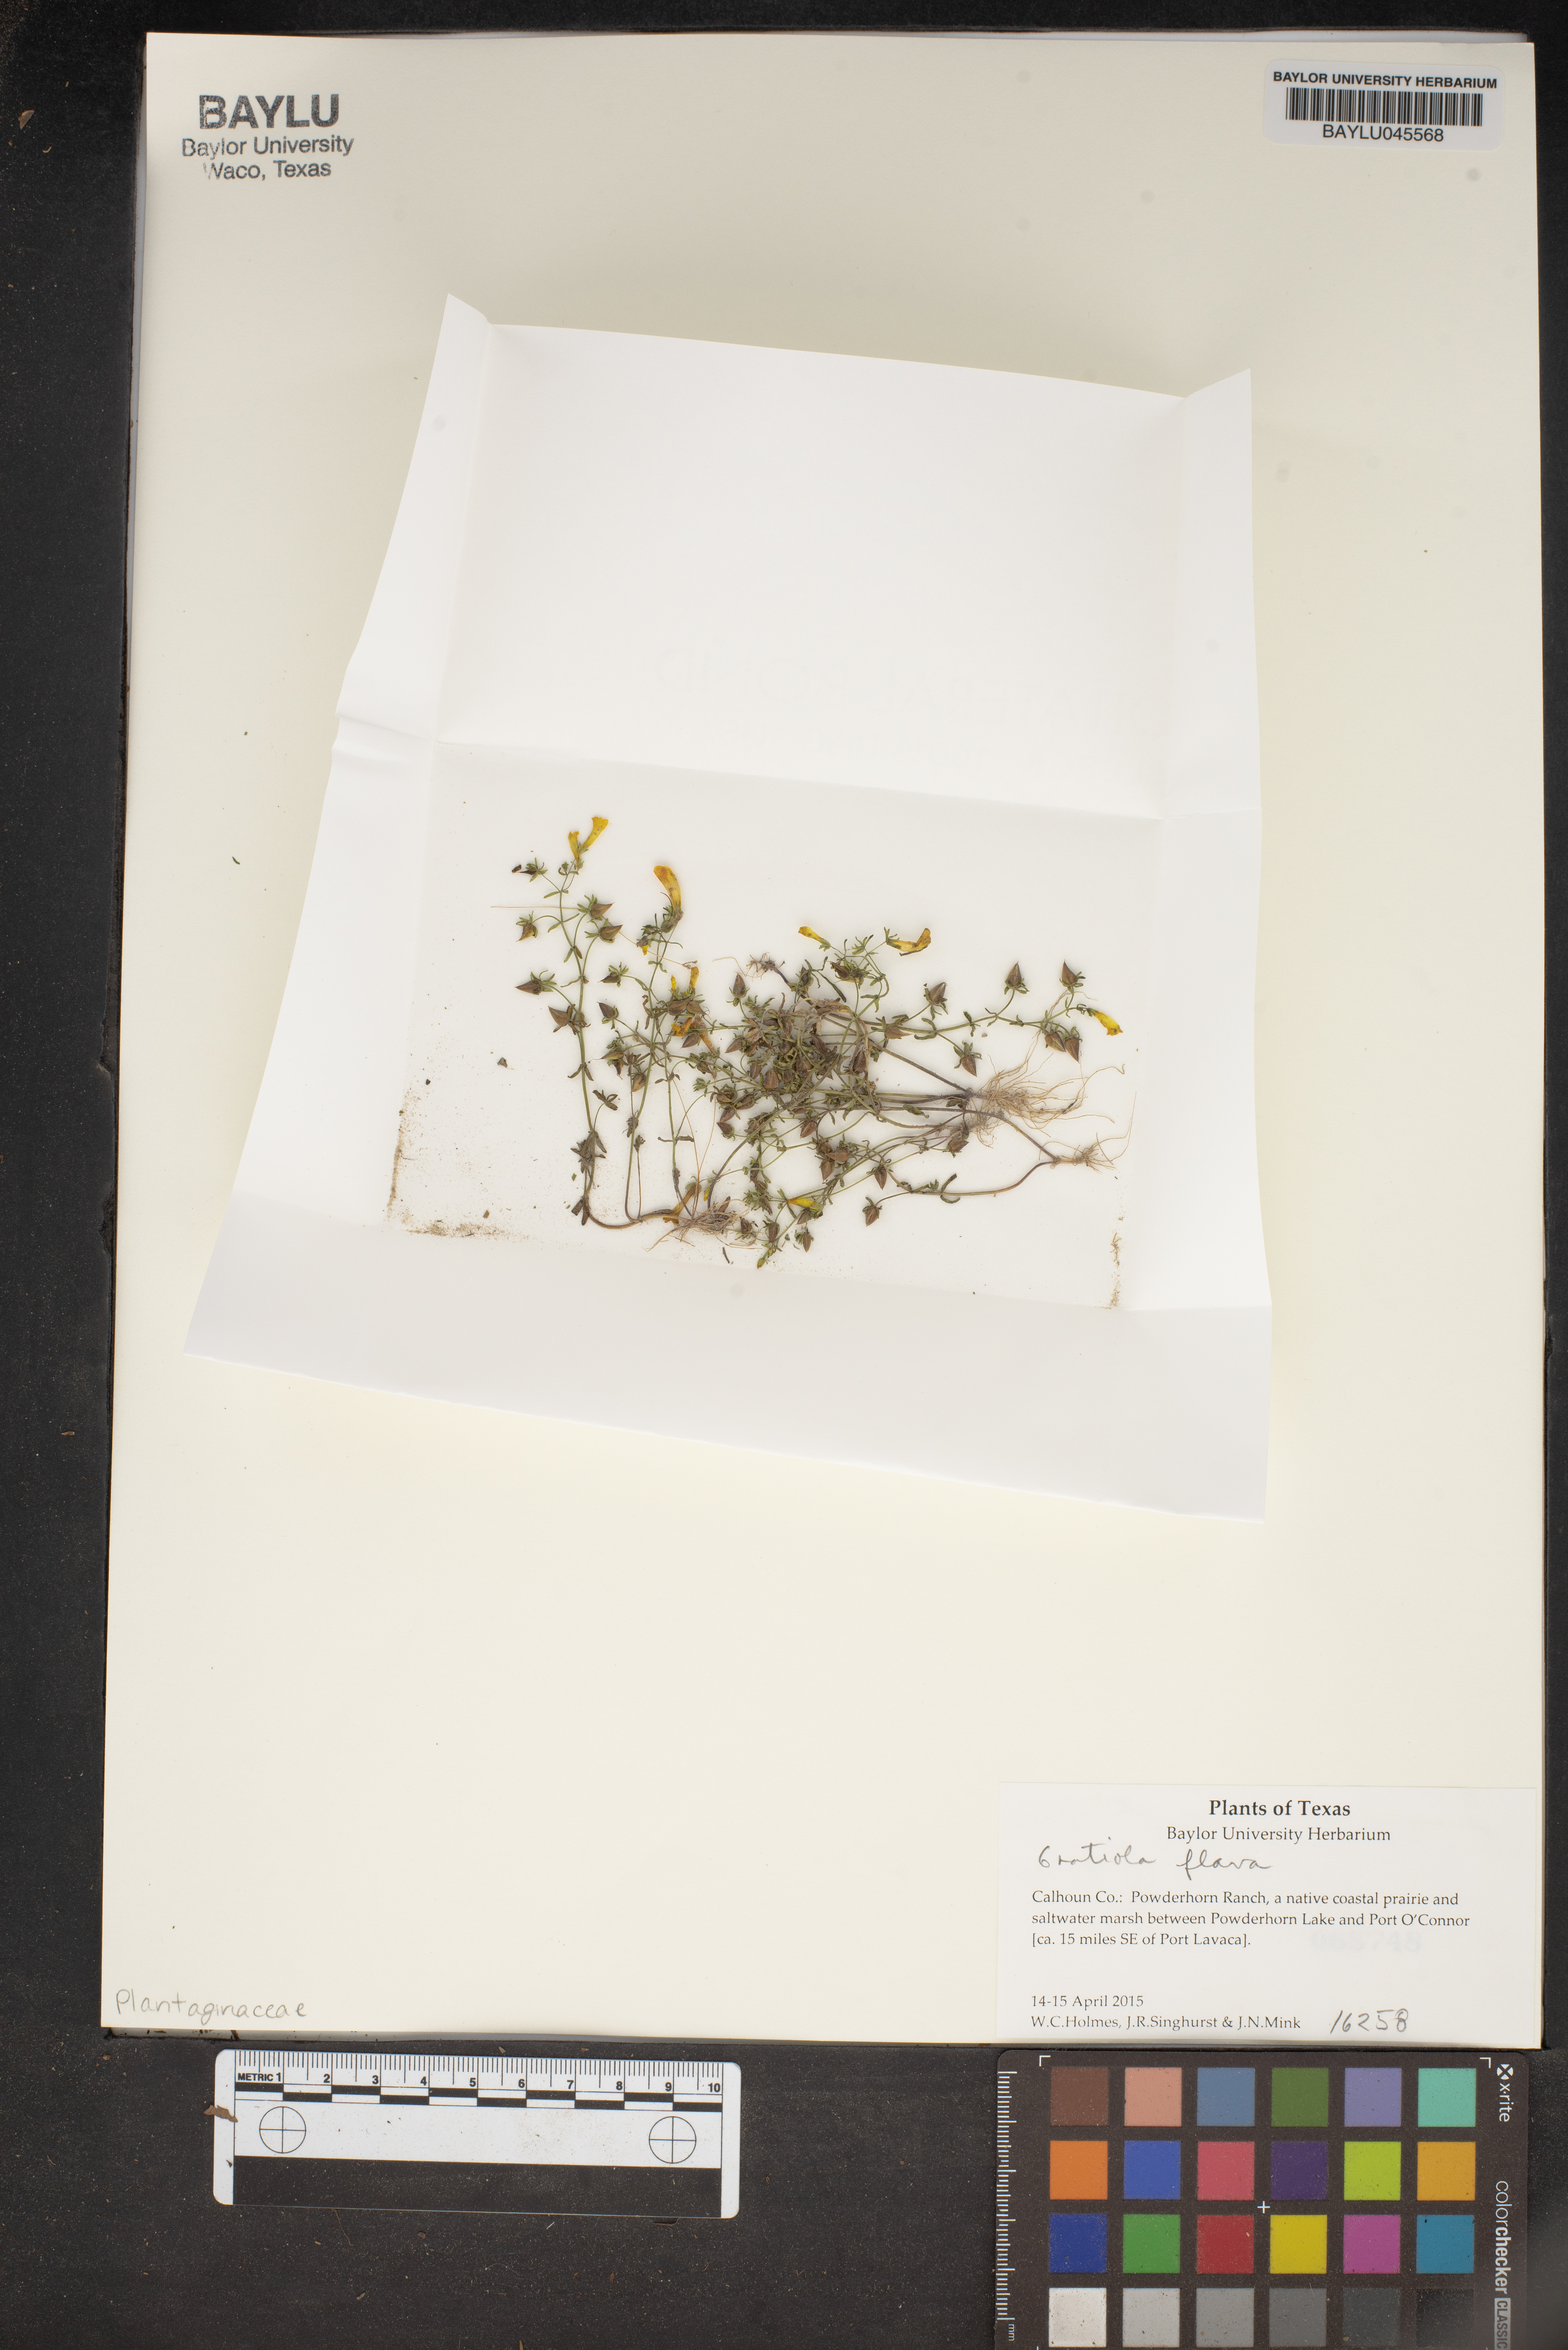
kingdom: Plantae
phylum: Tracheophyta
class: Magnoliopsida
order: Lamiales
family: Plantaginaceae
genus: Gratiola
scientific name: Gratiola flava
